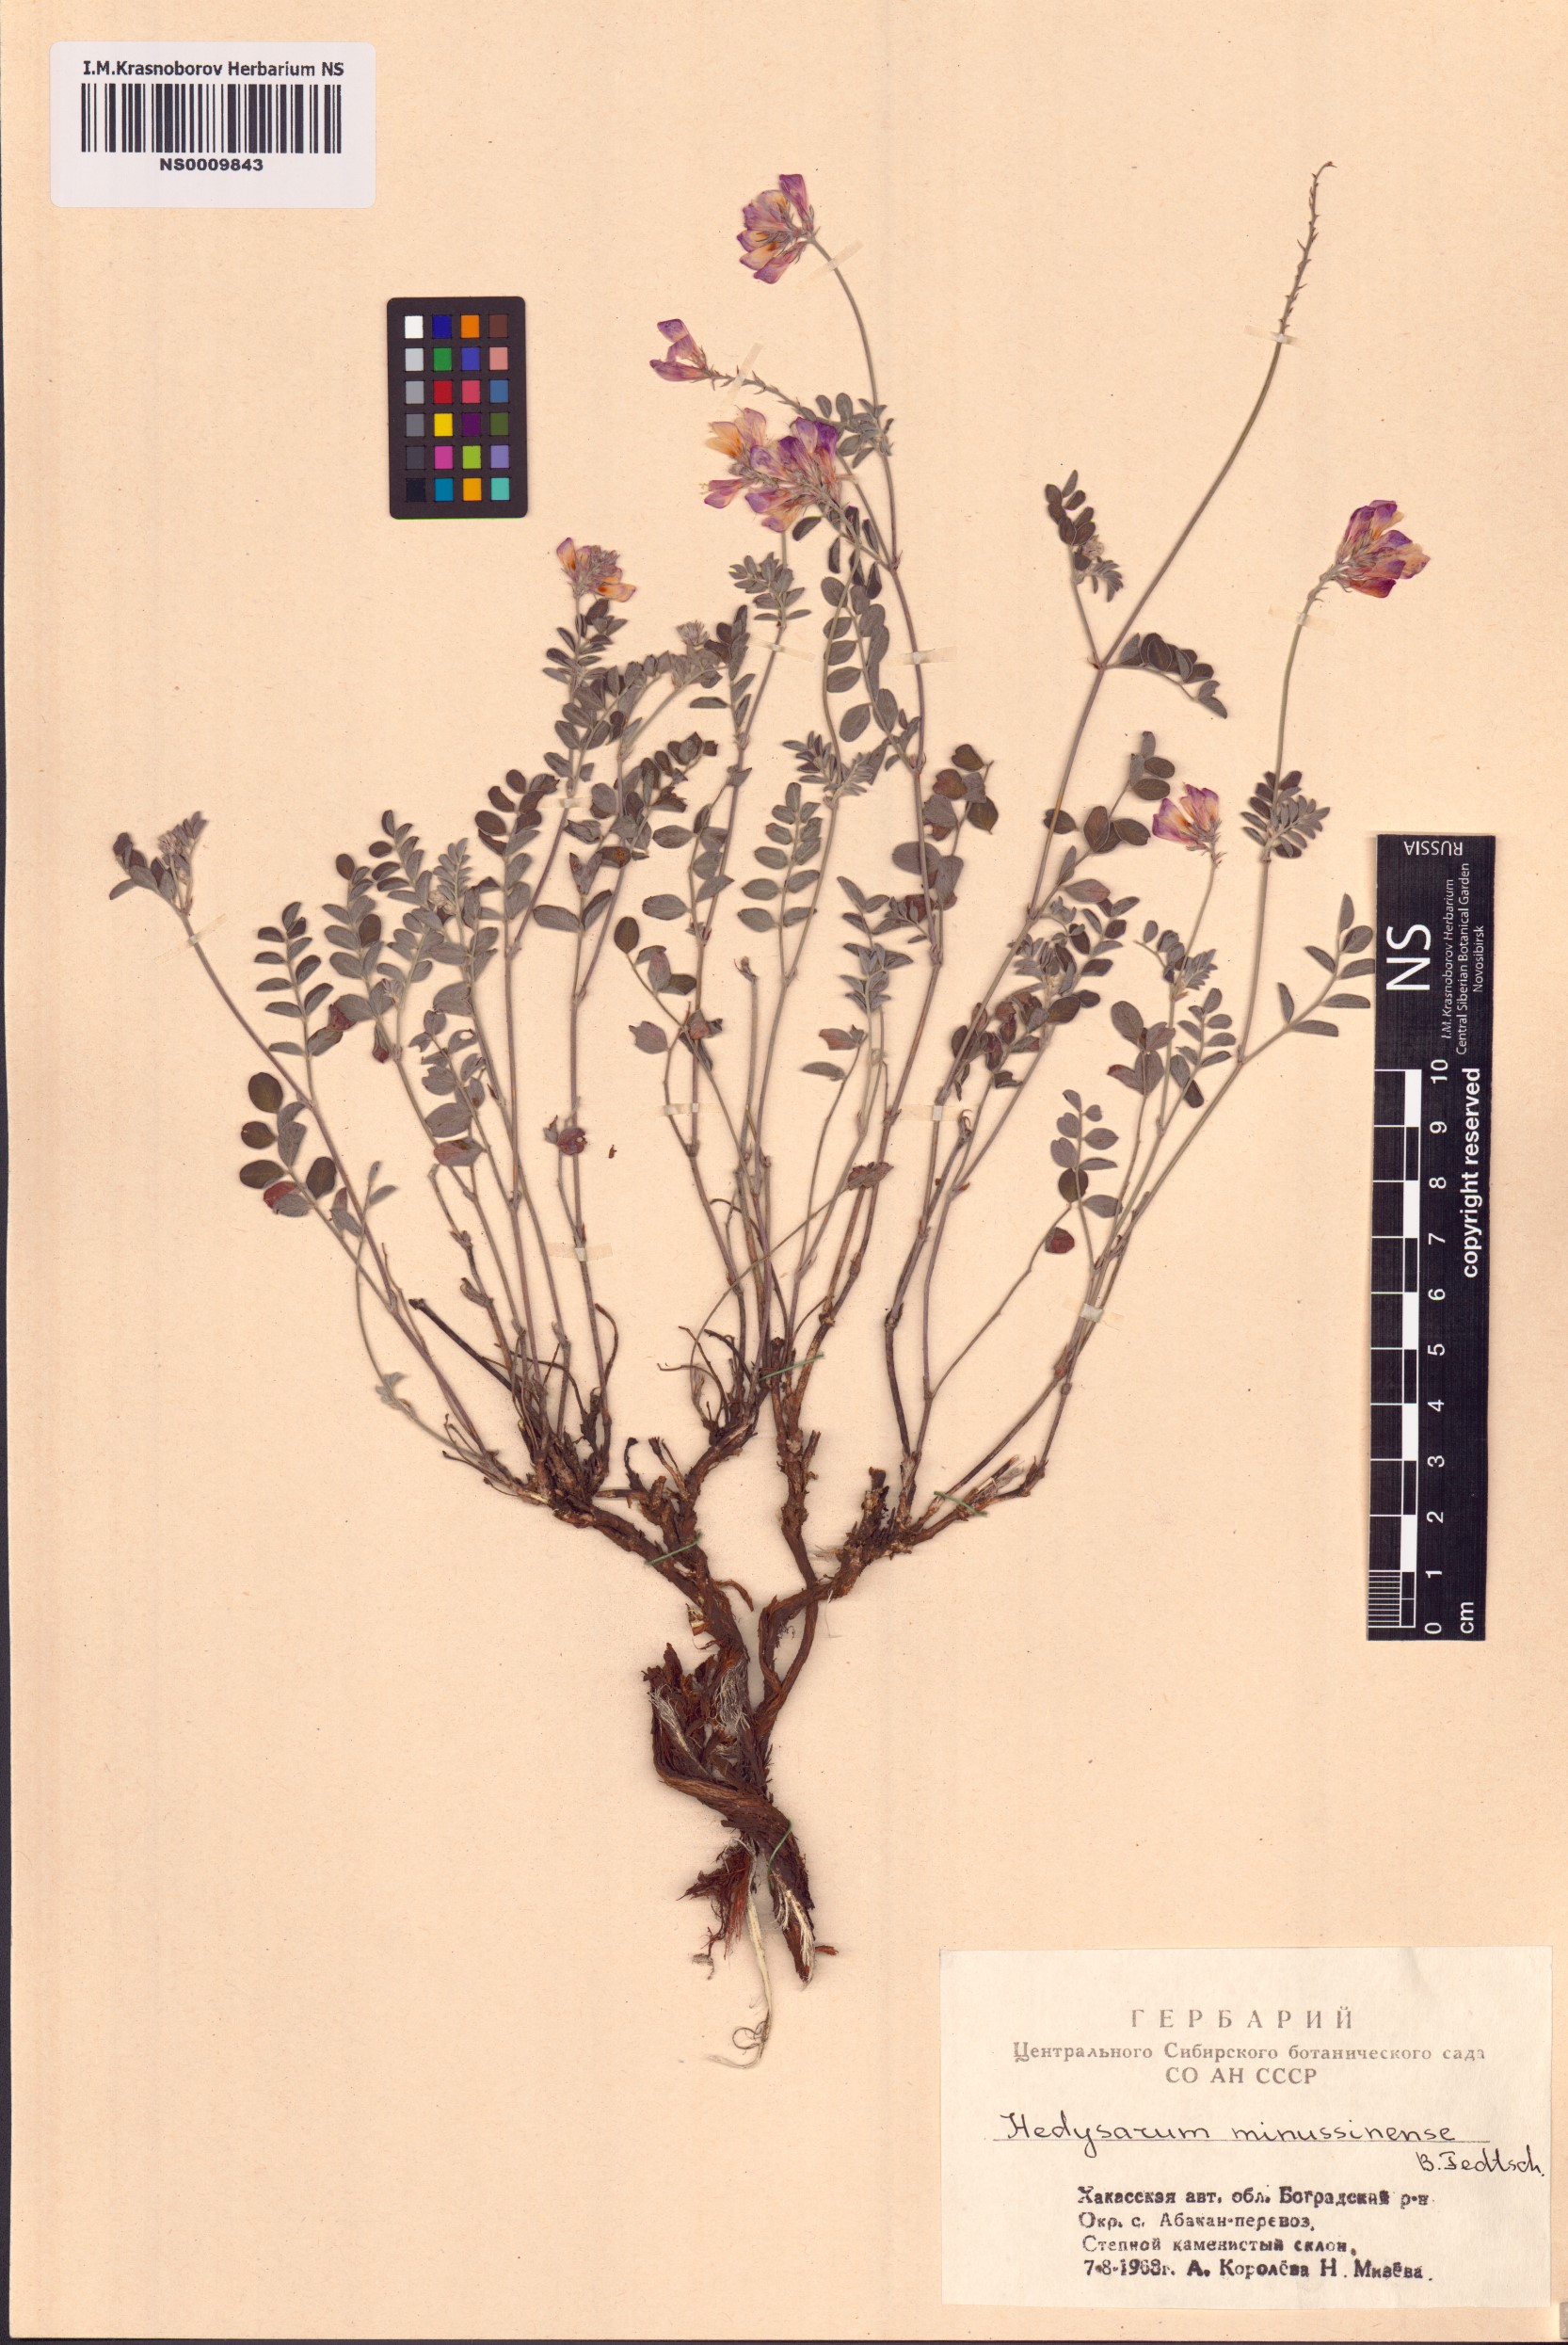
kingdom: Plantae
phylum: Tracheophyta
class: Magnoliopsida
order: Fabales
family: Fabaceae
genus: Hedysarum
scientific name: Hedysarum minussinense
